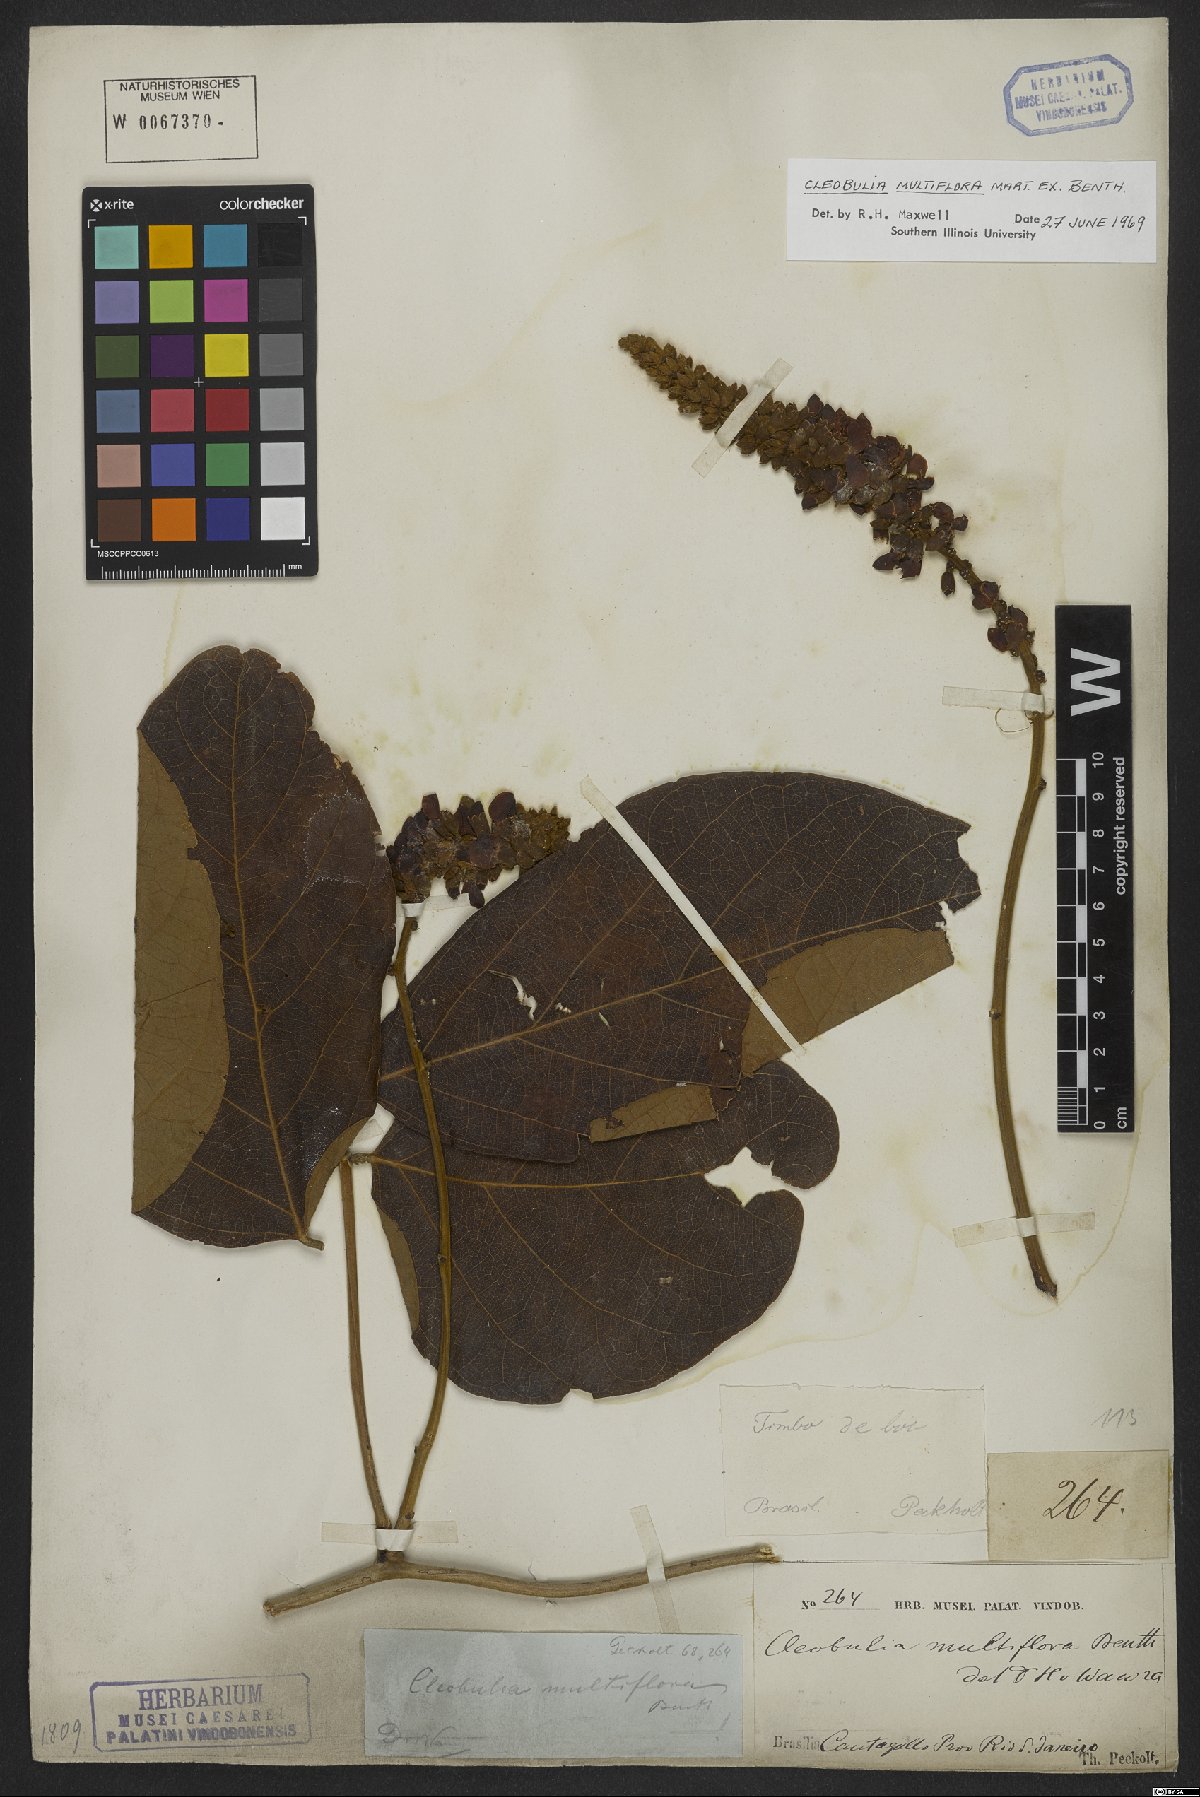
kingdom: Plantae
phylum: Tracheophyta
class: Magnoliopsida
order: Fabales
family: Fabaceae
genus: Cleobulia
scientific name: Cleobulia coccinea
